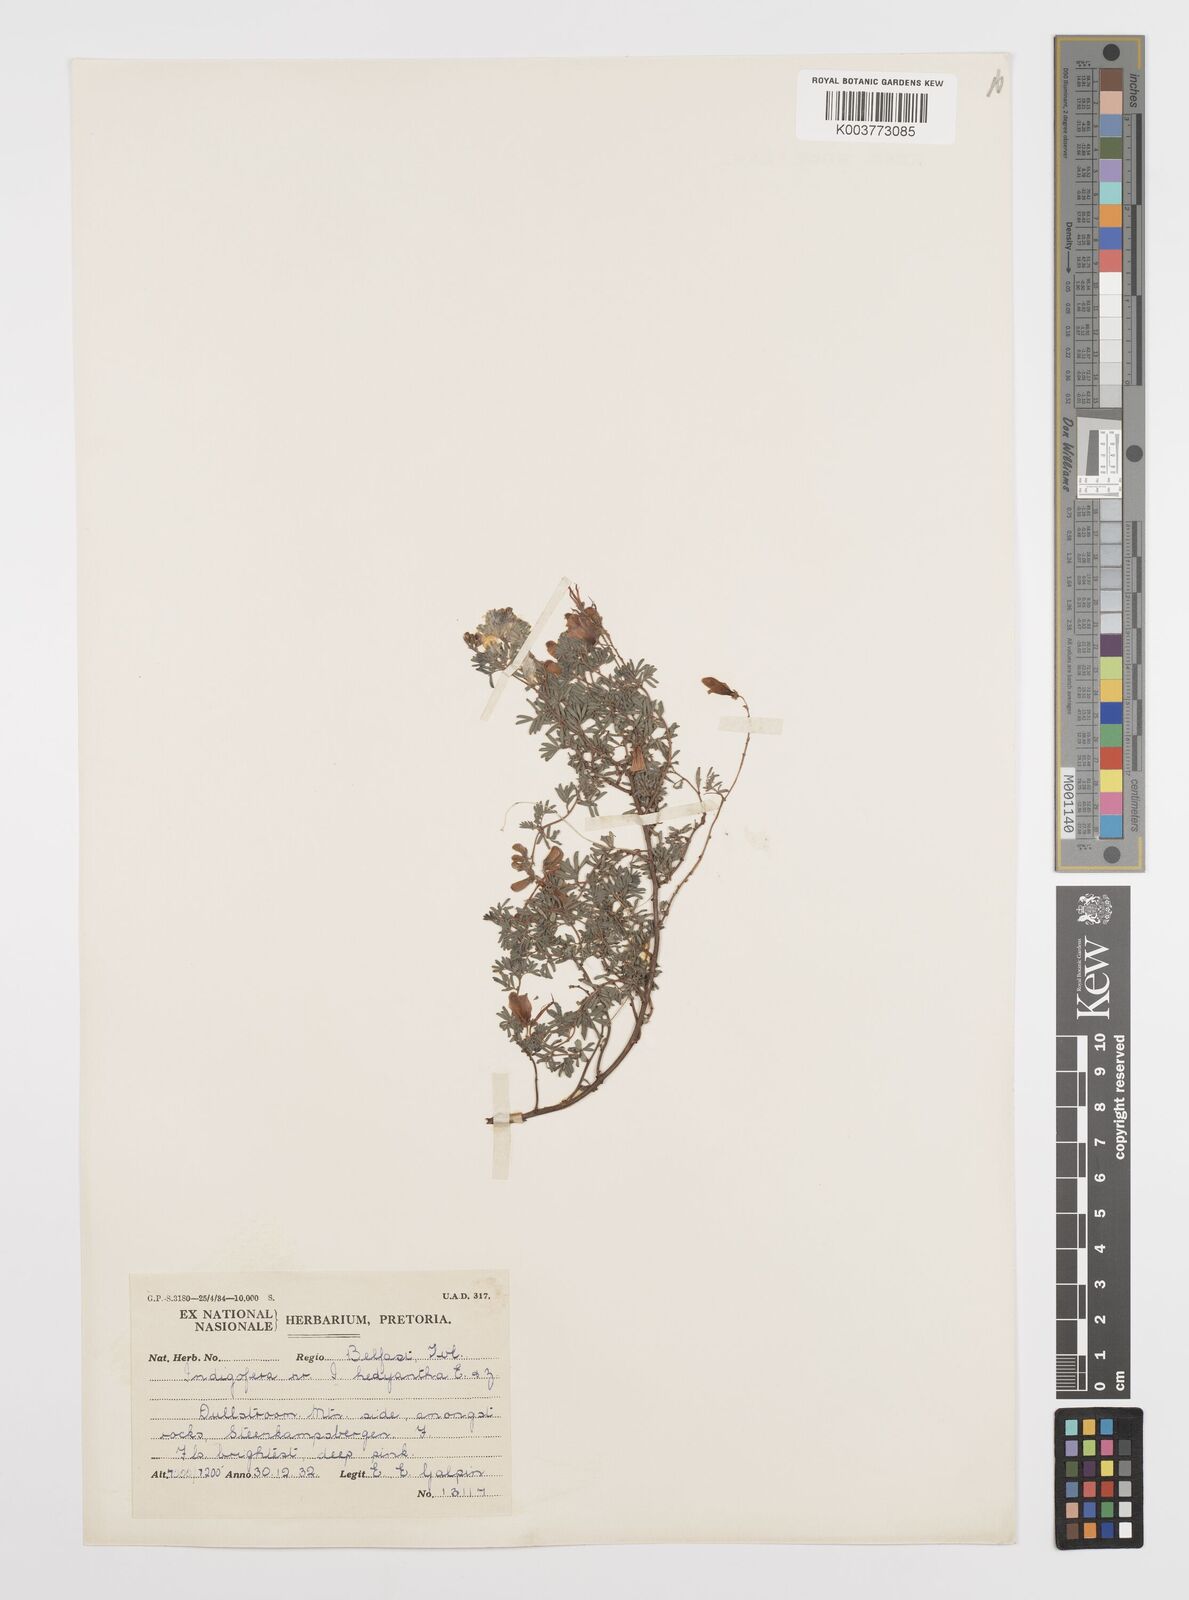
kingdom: Plantae
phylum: Tracheophyta
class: Magnoliopsida
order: Fabales
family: Fabaceae
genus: Indigofera
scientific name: Indigofera
